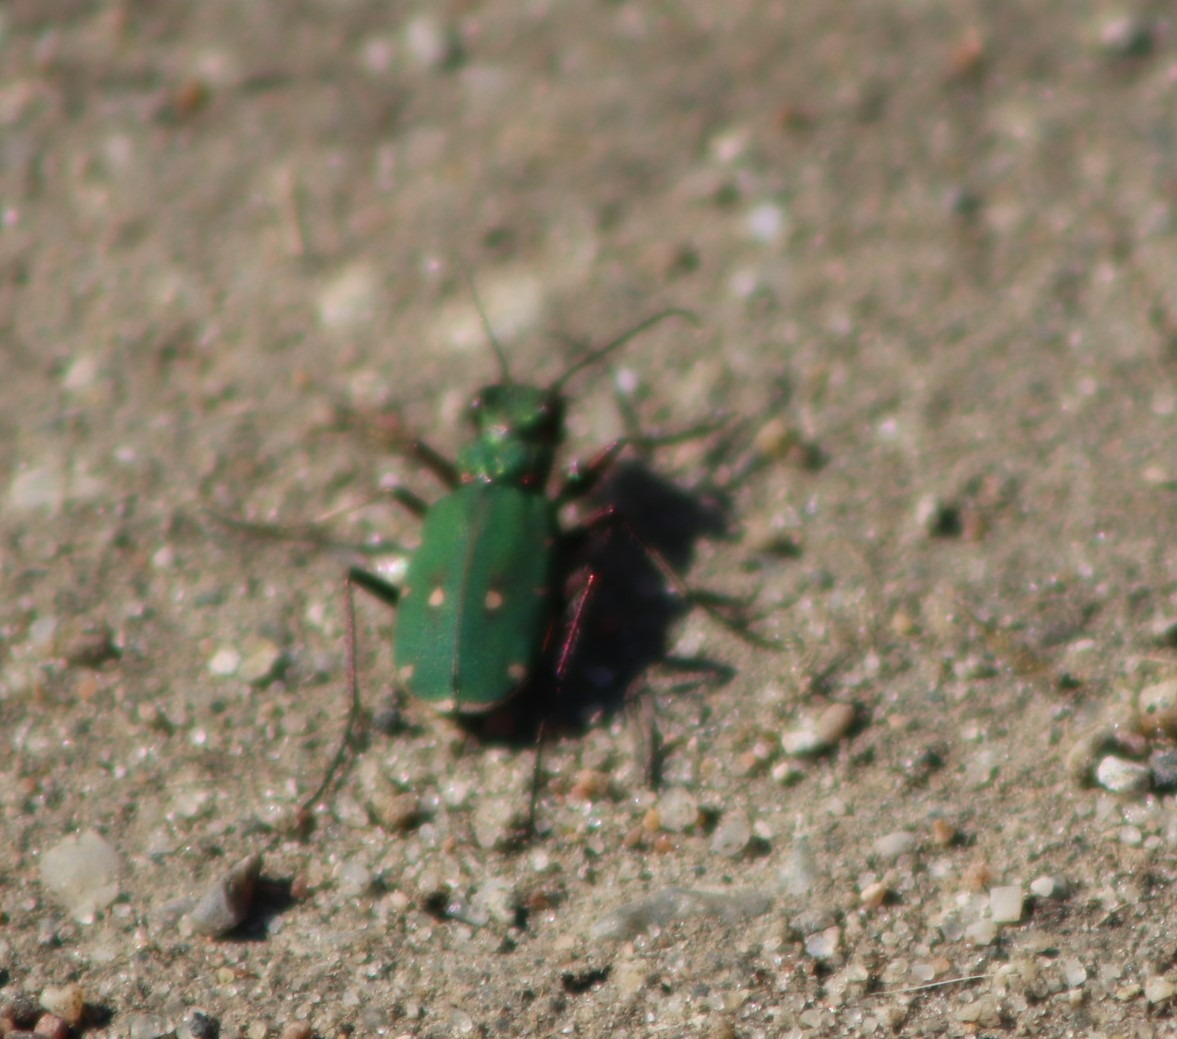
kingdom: Animalia
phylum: Arthropoda
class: Insecta
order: Coleoptera
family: Carabidae
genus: Cicindela
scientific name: Cicindela campestris
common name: Grøn sandspringer
